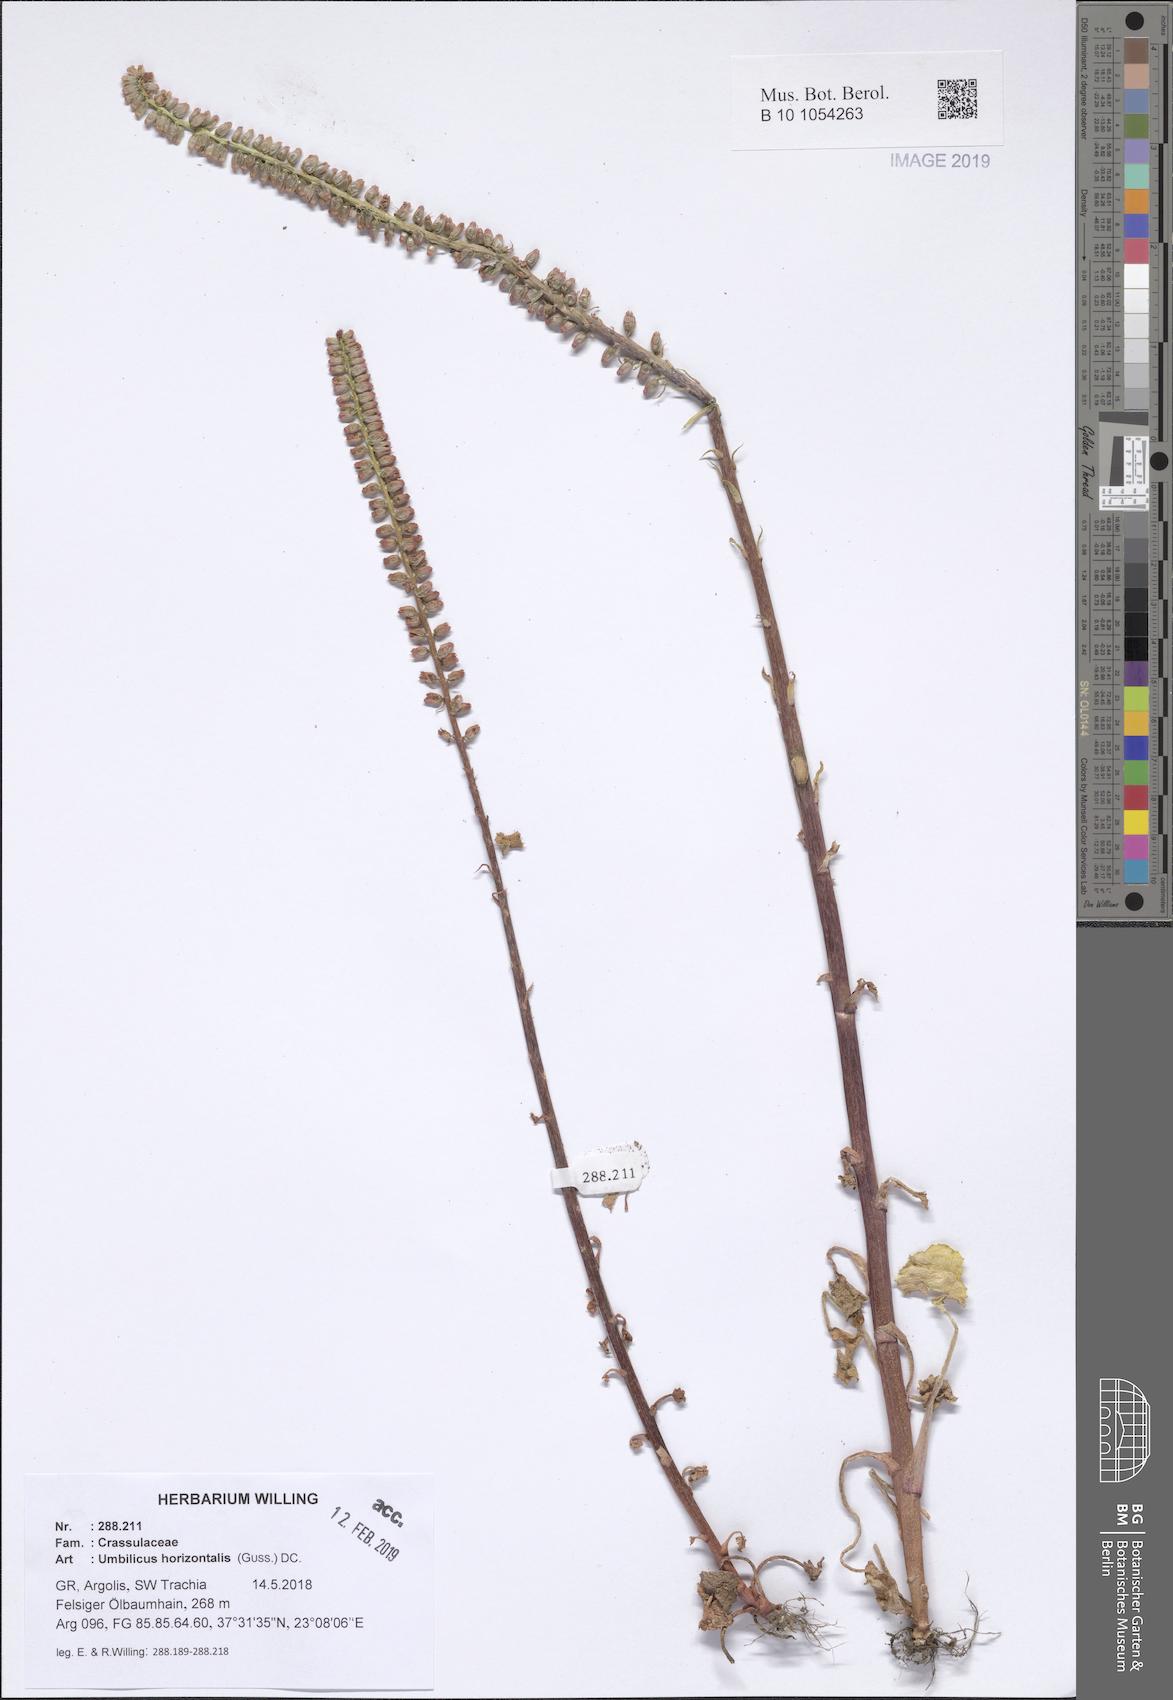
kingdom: Plantae
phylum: Tracheophyta
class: Magnoliopsida
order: Saxifragales
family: Crassulaceae
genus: Umbilicus
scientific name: Umbilicus horizontalis
